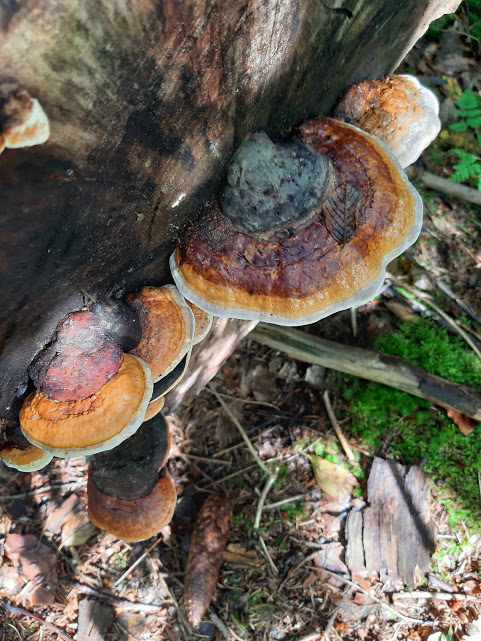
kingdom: Fungi
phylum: Basidiomycota
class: Agaricomycetes
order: Polyporales
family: Fomitopsidaceae
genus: Fomitopsis
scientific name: Fomitopsis pinicola
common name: randbæltet hovporesvamp
